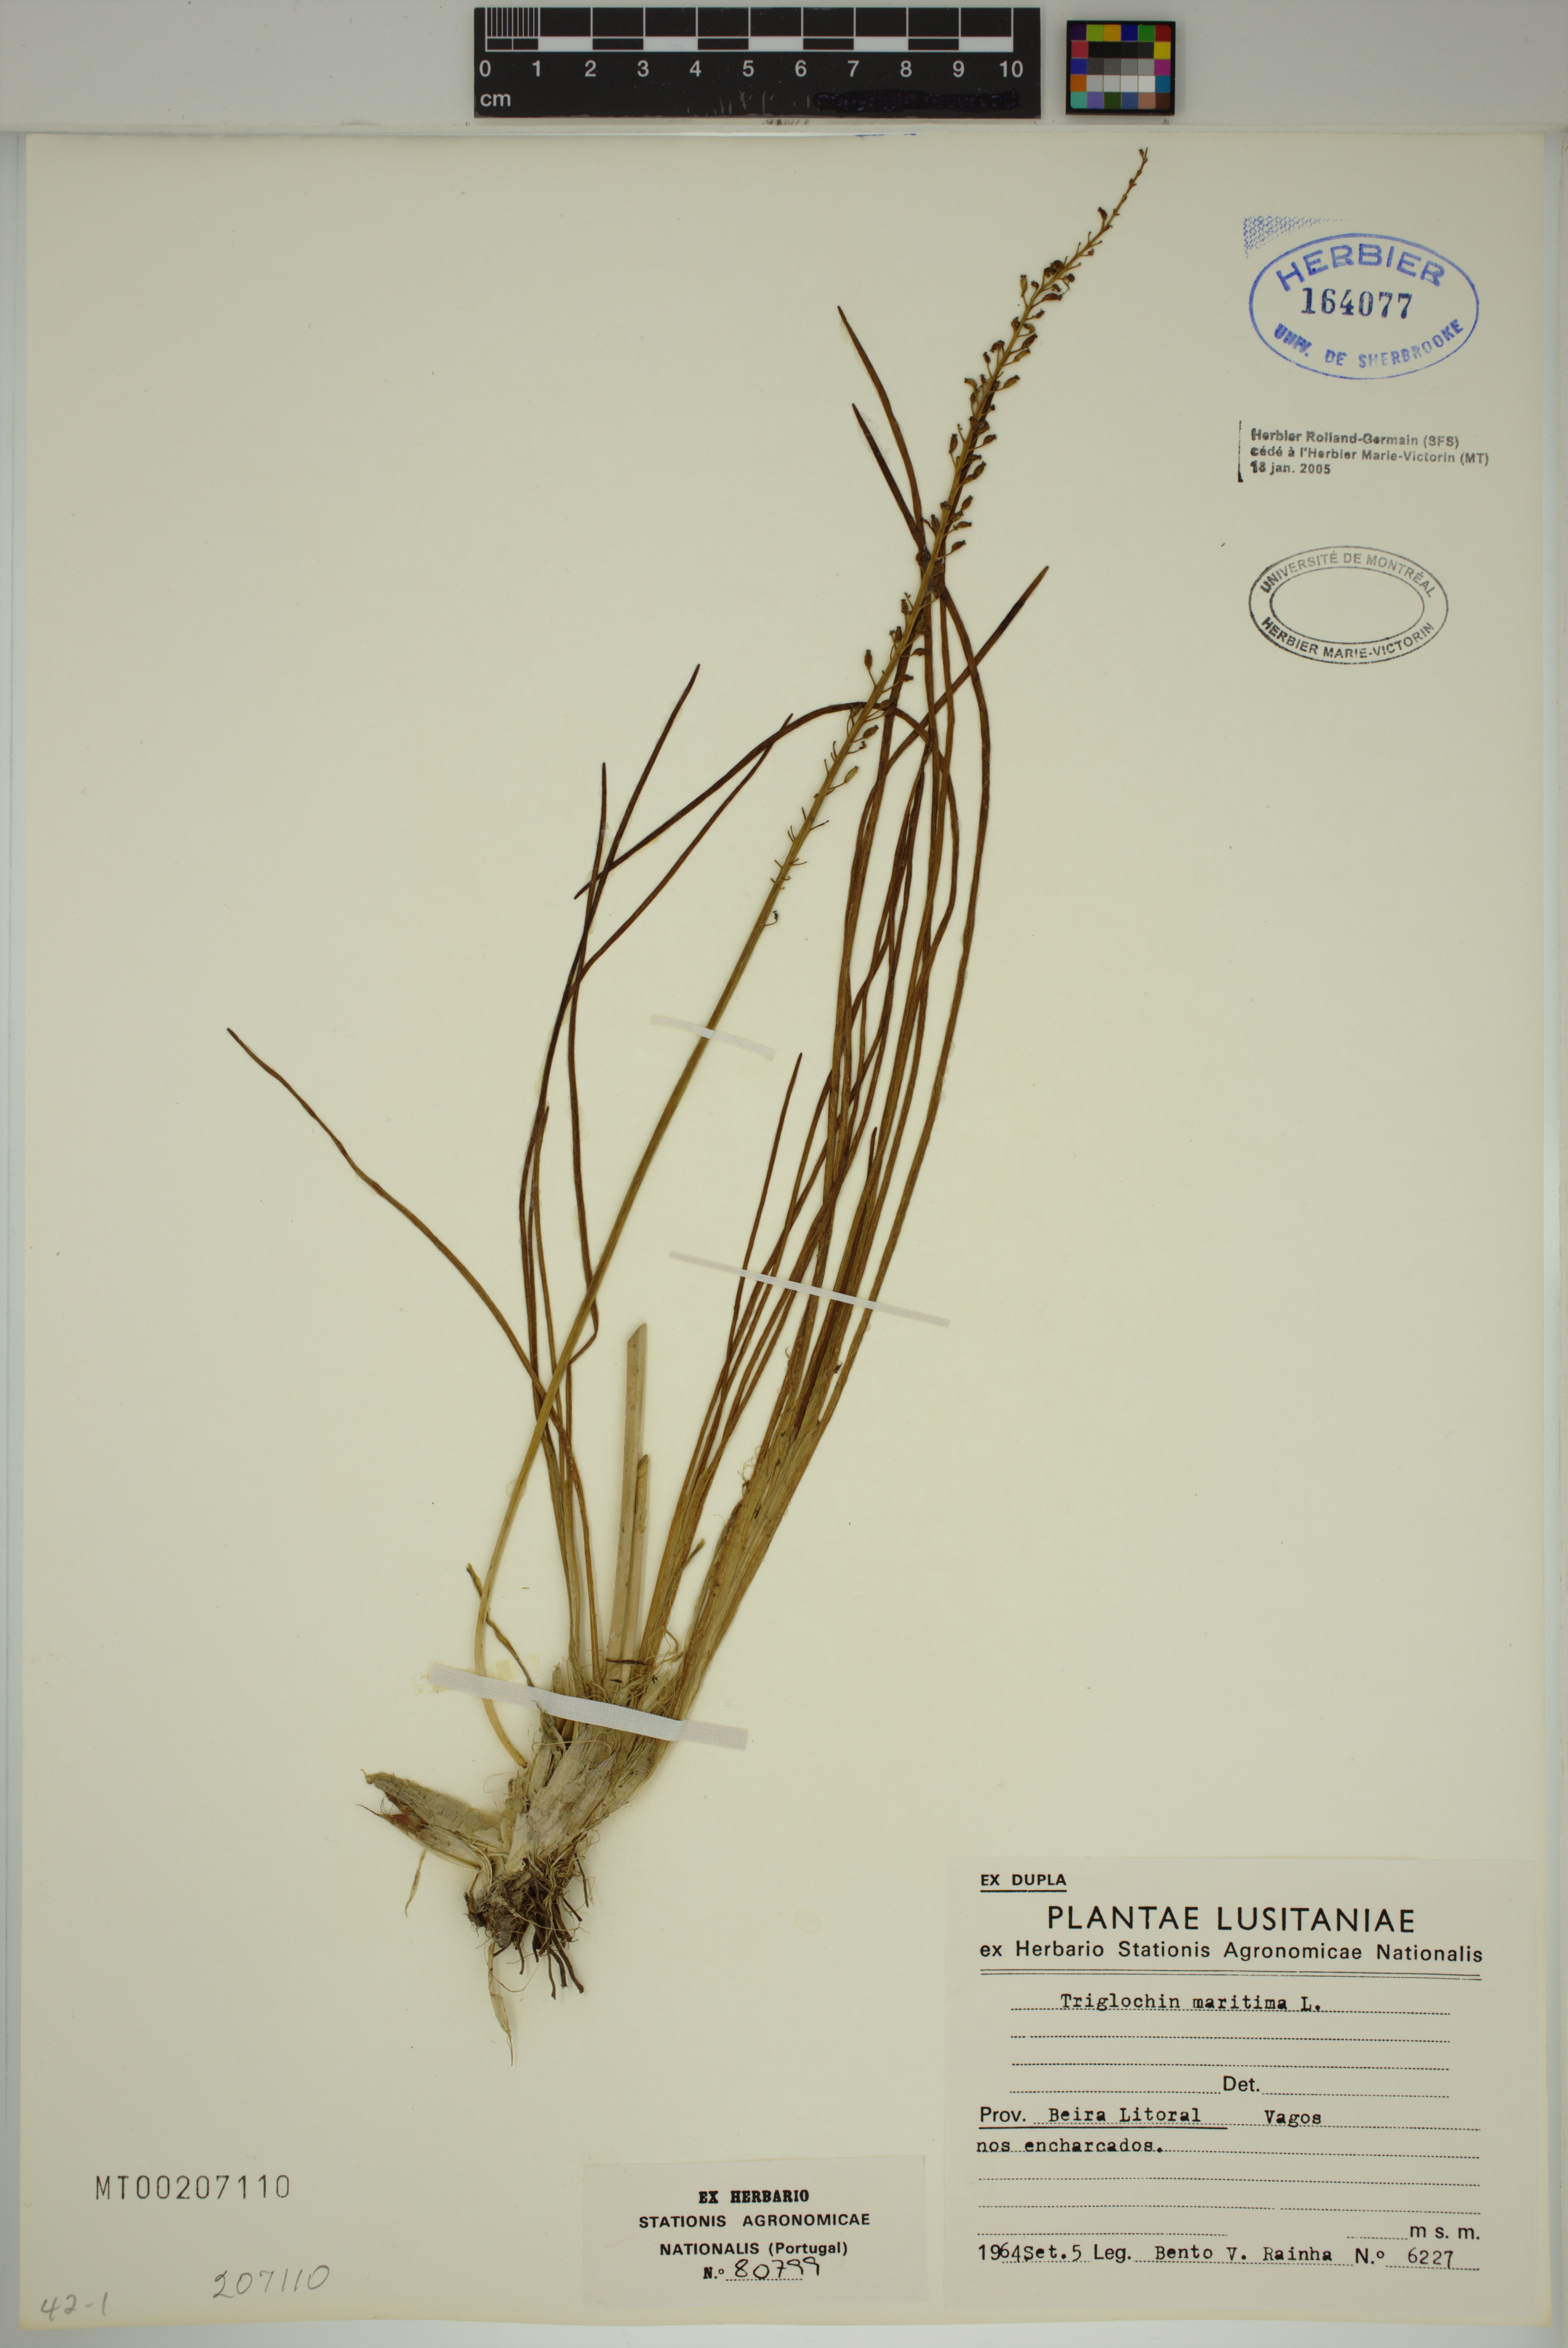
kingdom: Plantae
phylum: Tracheophyta
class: Liliopsida
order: Alismatales
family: Juncaginaceae
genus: Triglochin
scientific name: Triglochin maritima
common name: Sea arrowgrass
